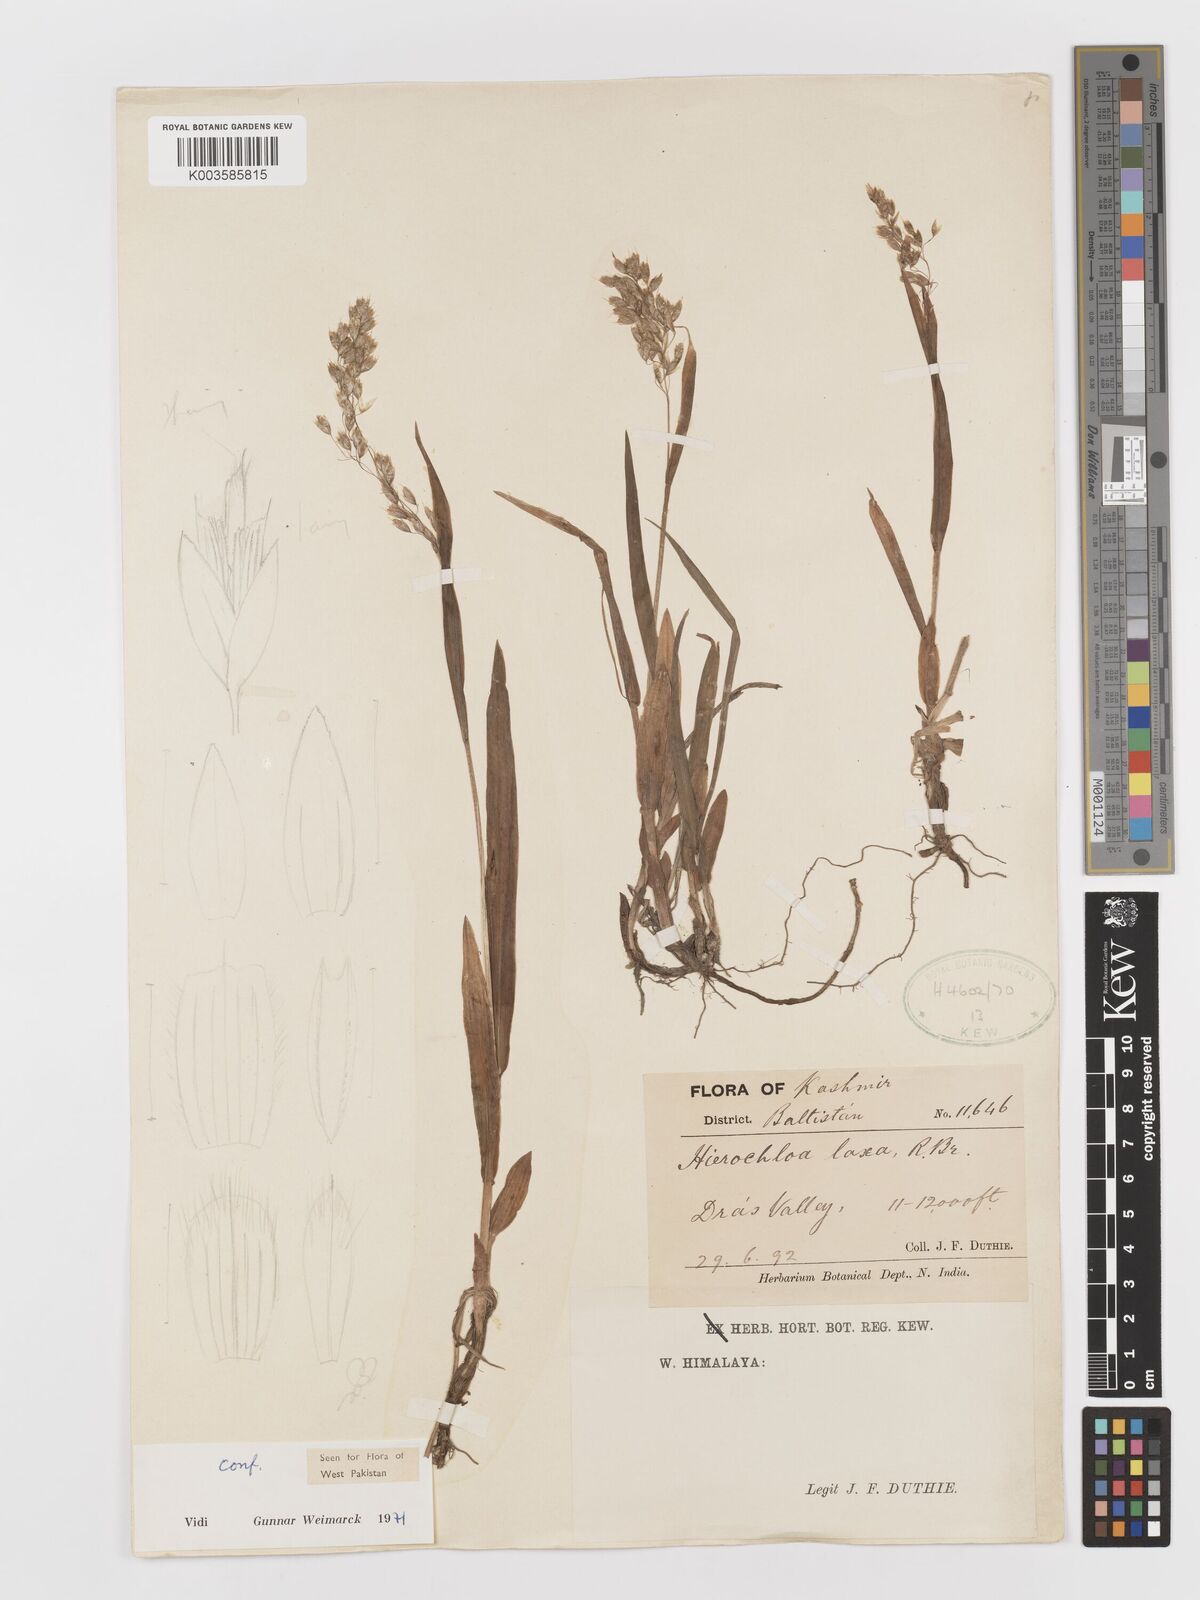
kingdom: Plantae
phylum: Tracheophyta
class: Liliopsida
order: Poales
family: Poaceae
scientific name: Poaceae
